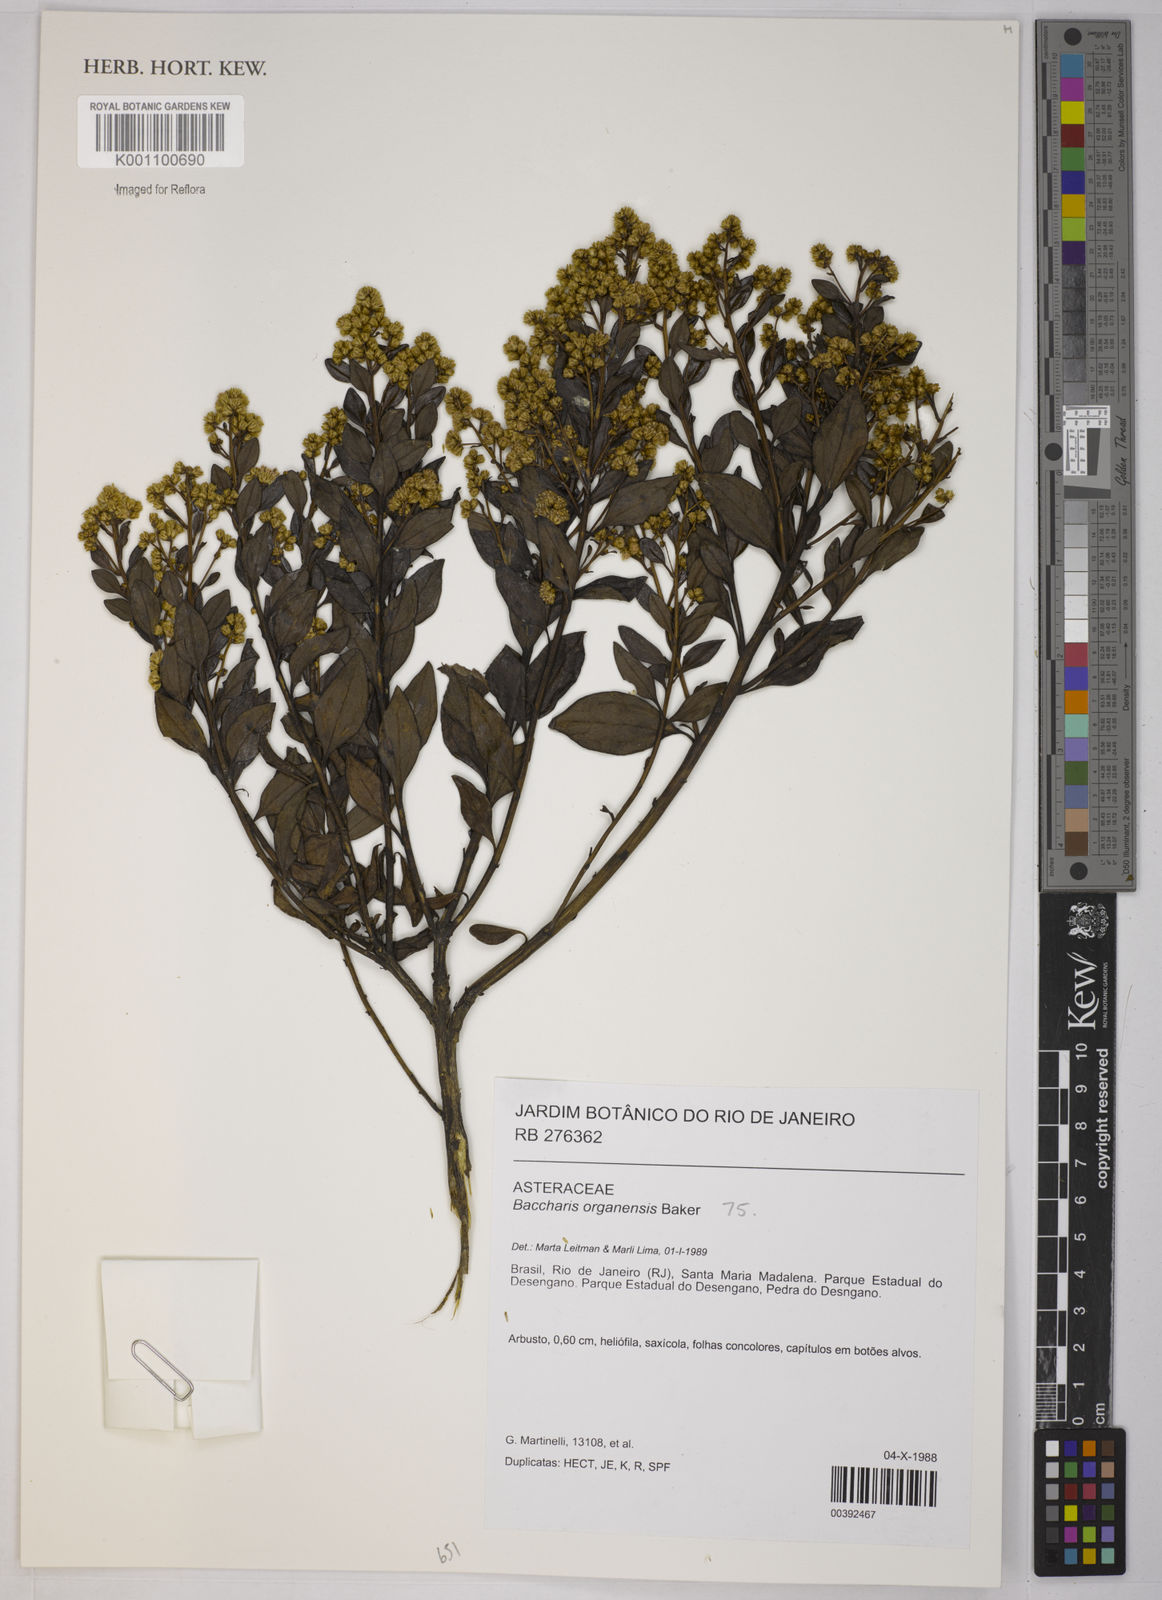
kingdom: Plantae
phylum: Tracheophyta
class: Magnoliopsida
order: Asterales
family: Asteraceae
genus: Baccharis
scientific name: Baccharis organensis
